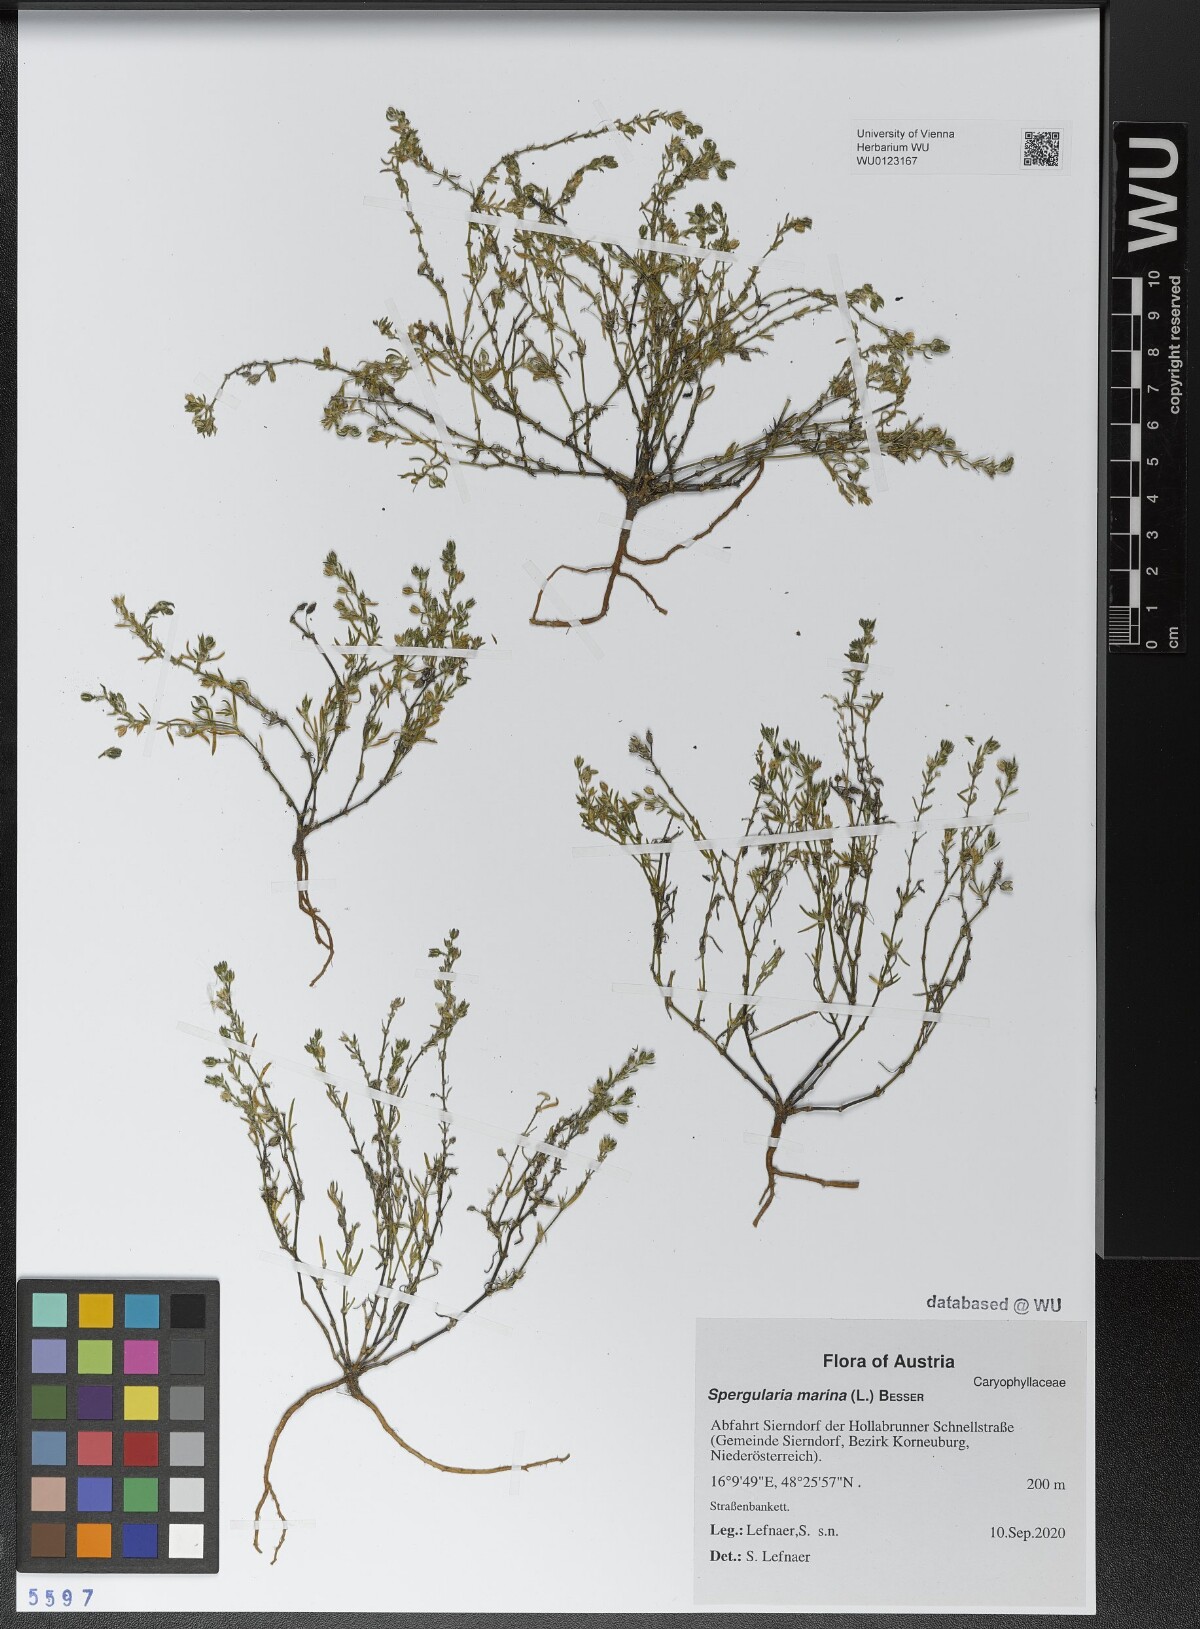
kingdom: Plantae
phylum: Tracheophyta
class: Magnoliopsida
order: Caryophyllales
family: Caryophyllaceae
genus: Spergularia
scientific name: Spergularia marina
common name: Lesser sea-spurrey
